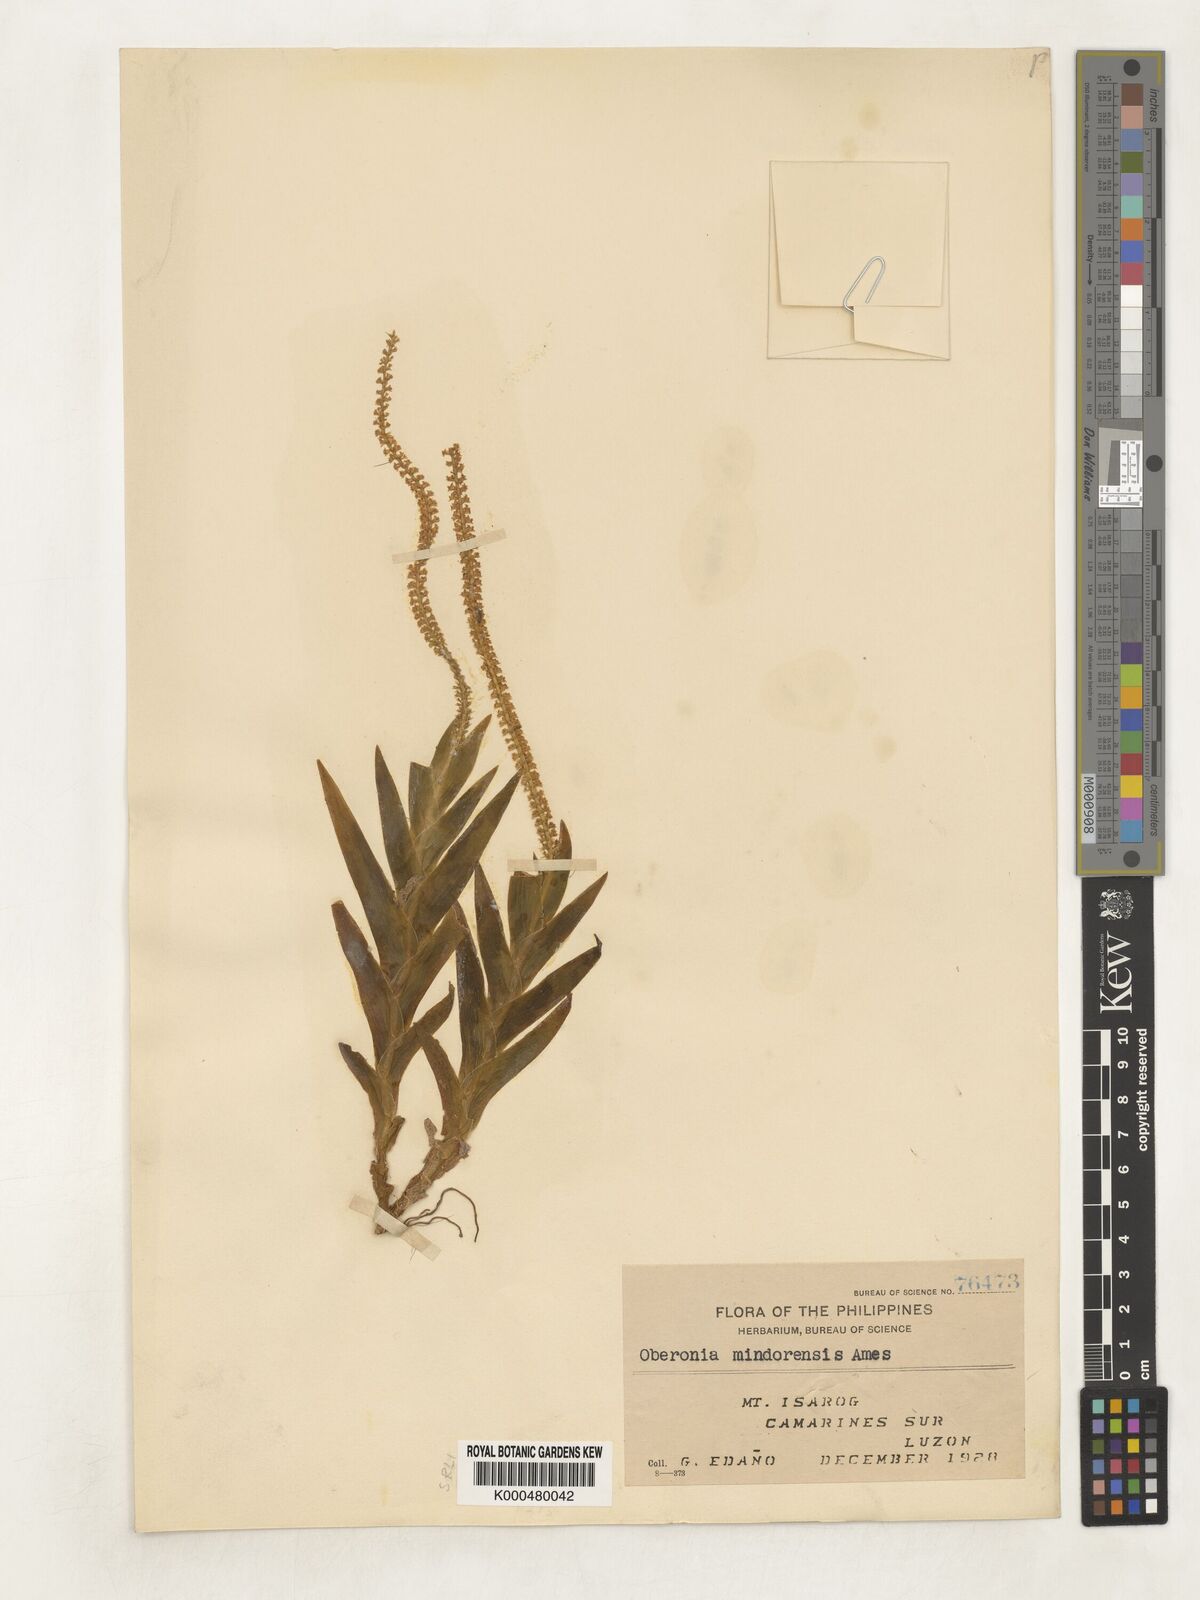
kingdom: Plantae
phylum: Tracheophyta
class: Liliopsida
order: Asparagales
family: Orchidaceae
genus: Oberonia
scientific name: Oberonia mindorensis
